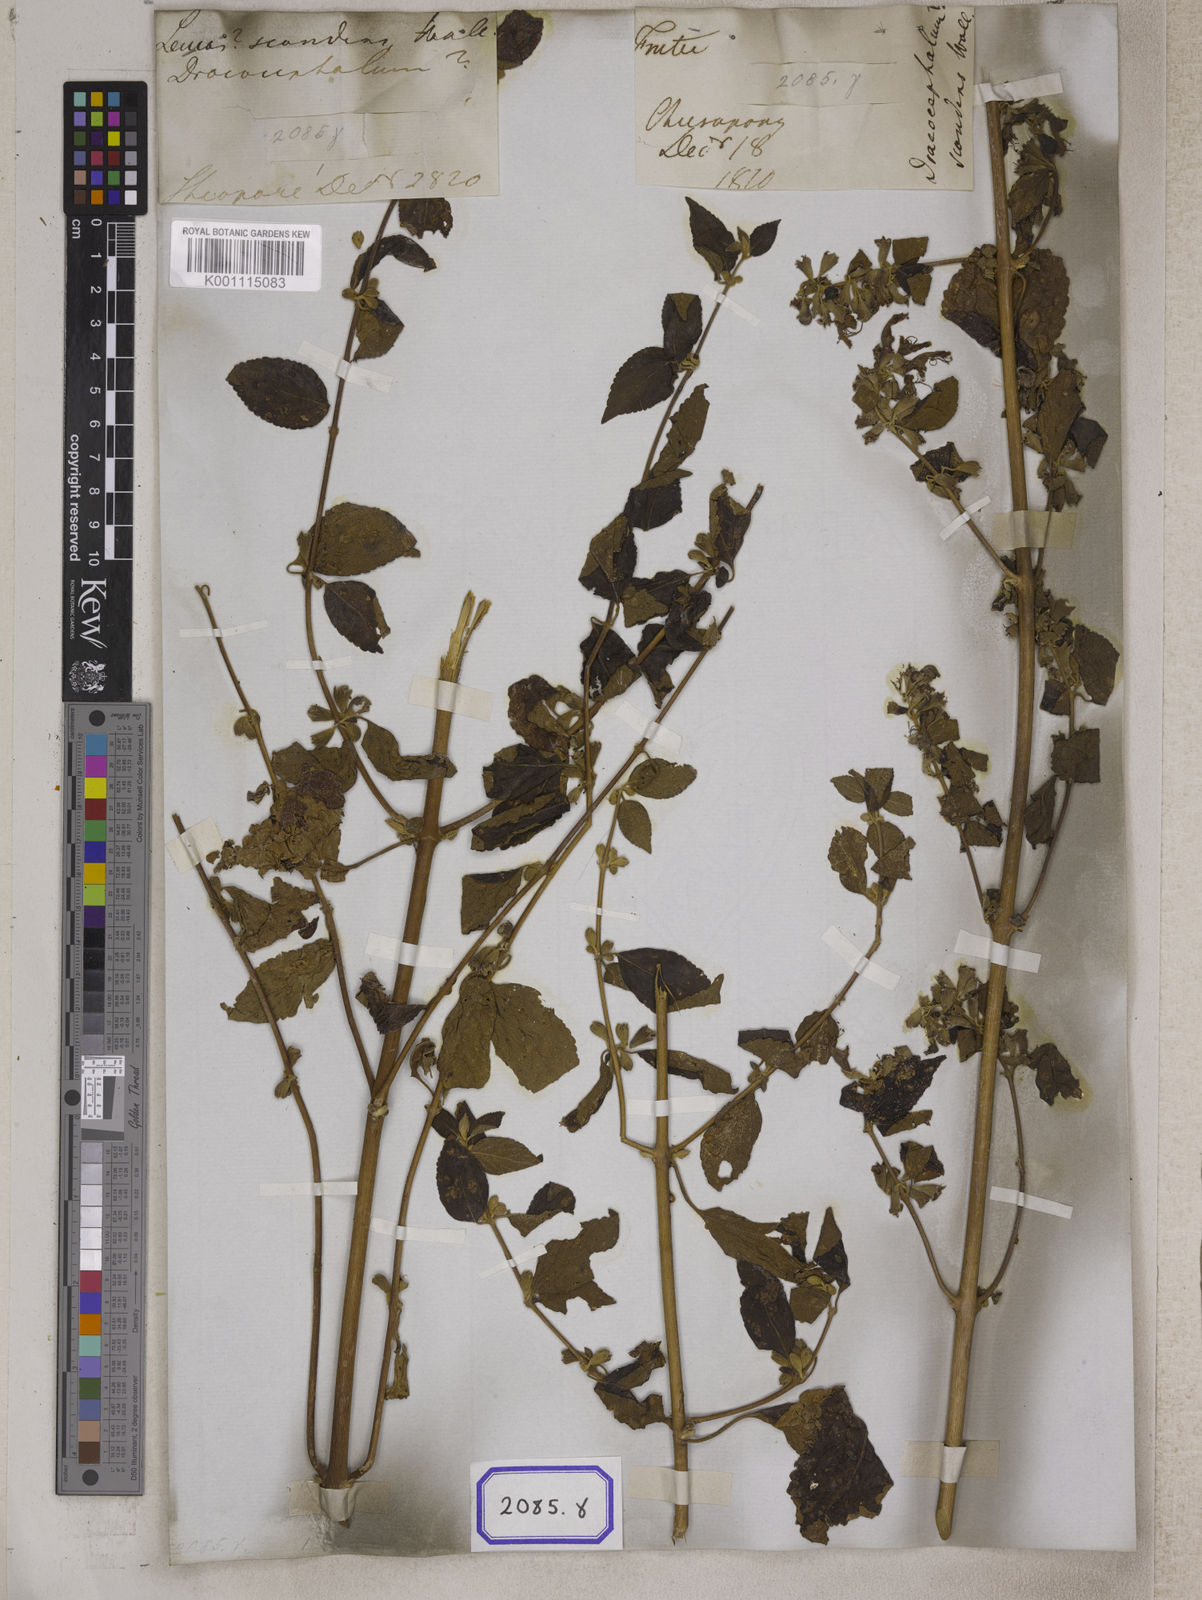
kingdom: Plantae
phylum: Tracheophyta
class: Magnoliopsida
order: Lamiales
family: Lamiaceae
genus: Colquhounia
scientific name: Colquhounia
